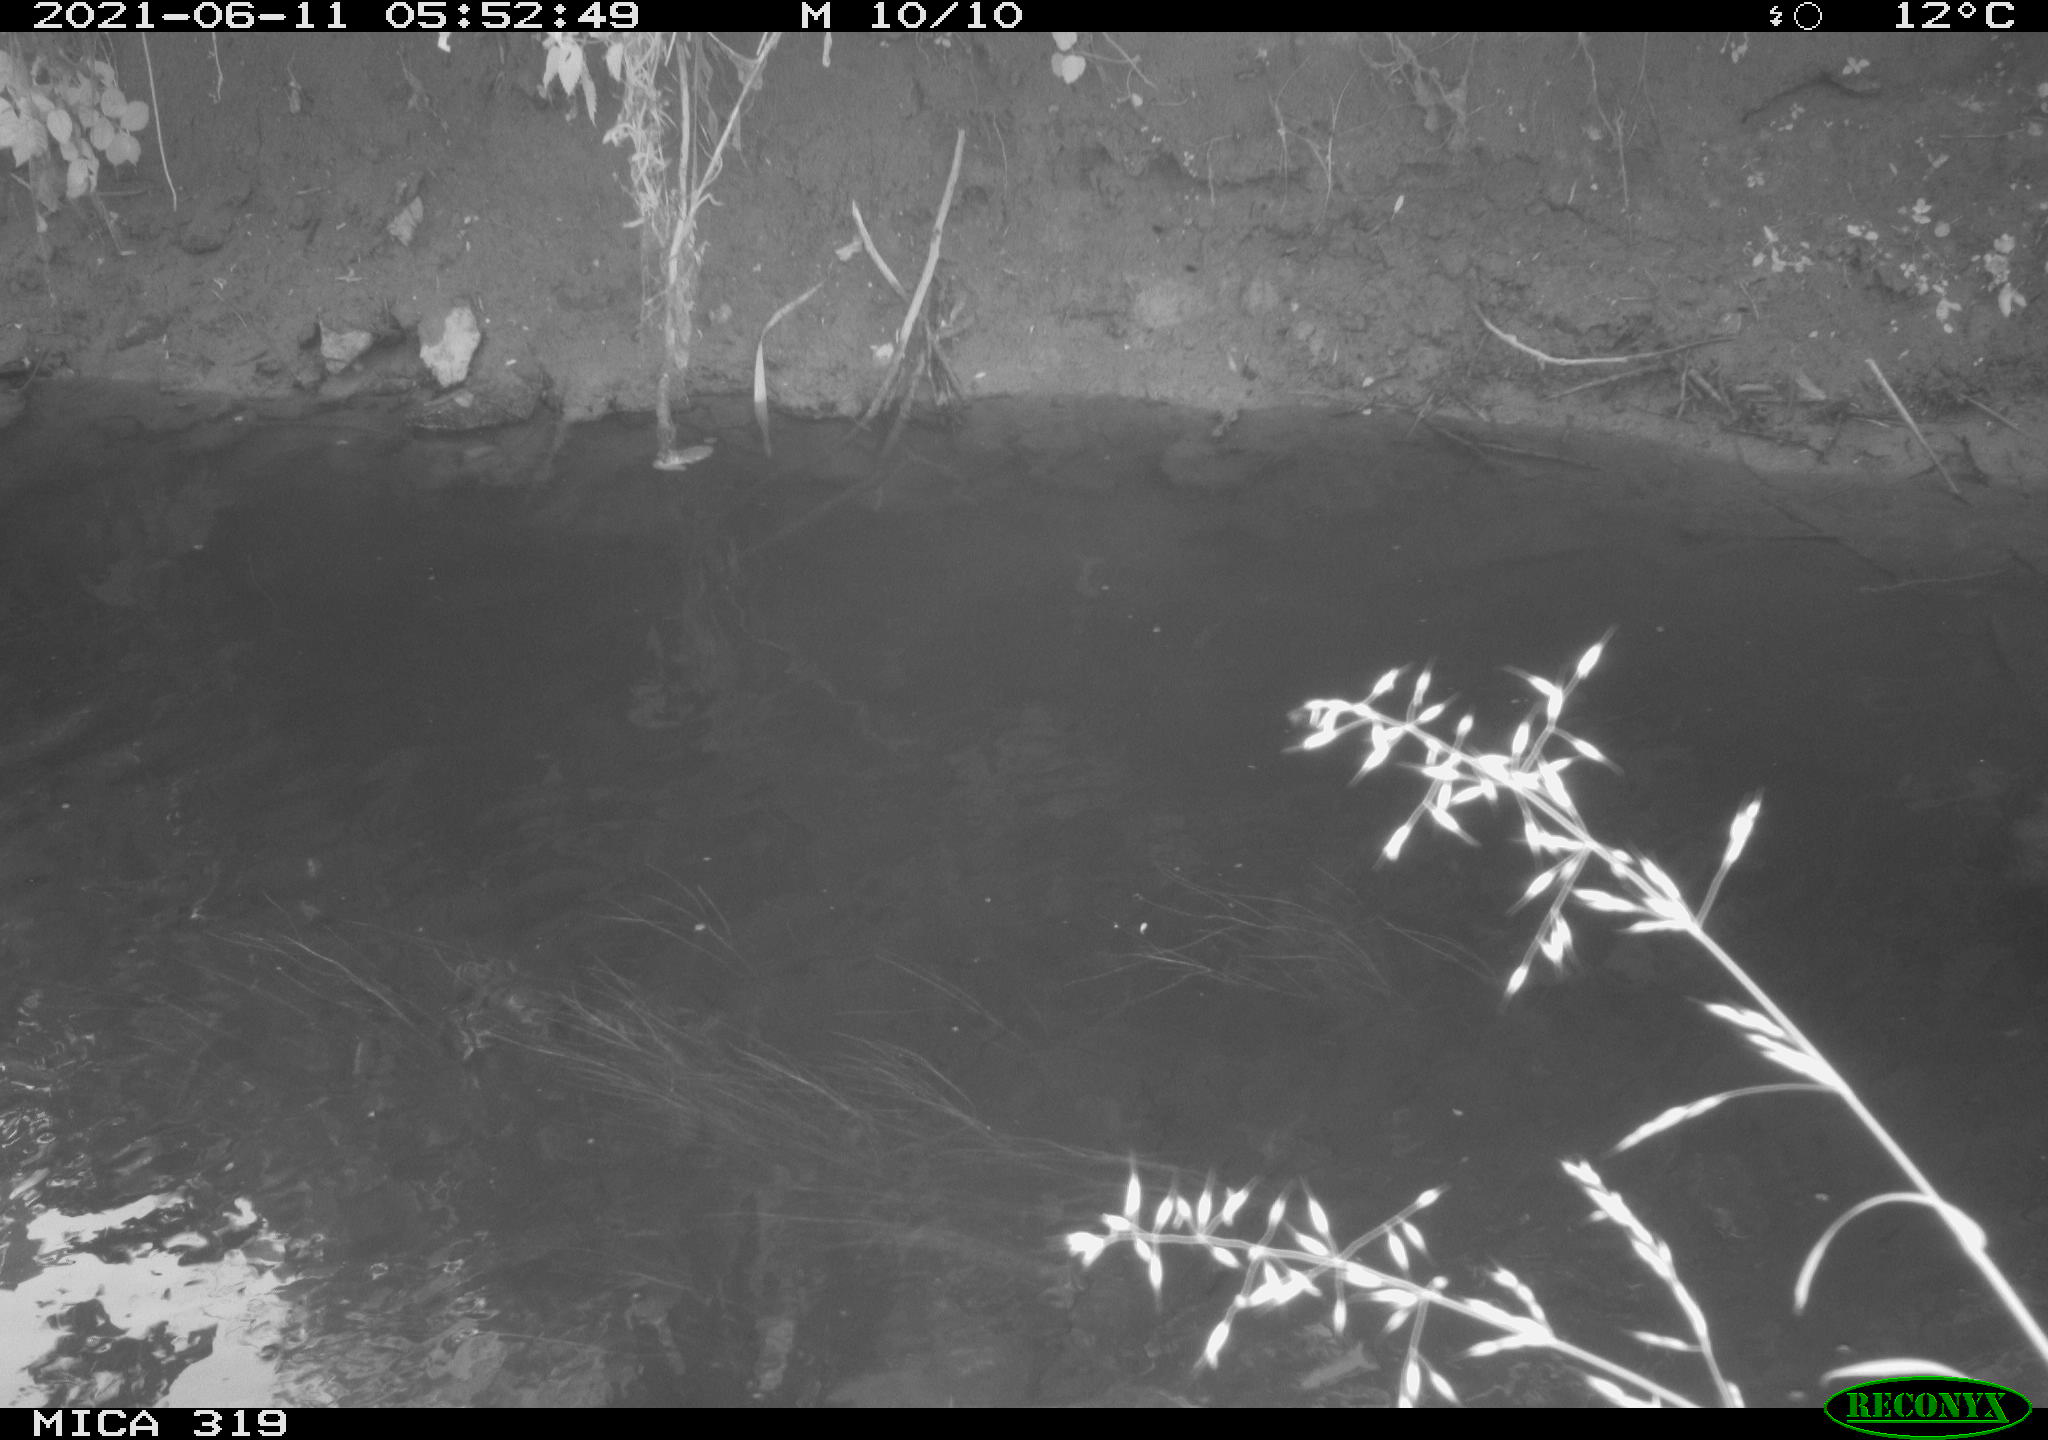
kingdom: Animalia
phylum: Chordata
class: Aves
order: Anseriformes
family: Anatidae
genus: Anas
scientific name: Anas platyrhynchos
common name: Mallard
